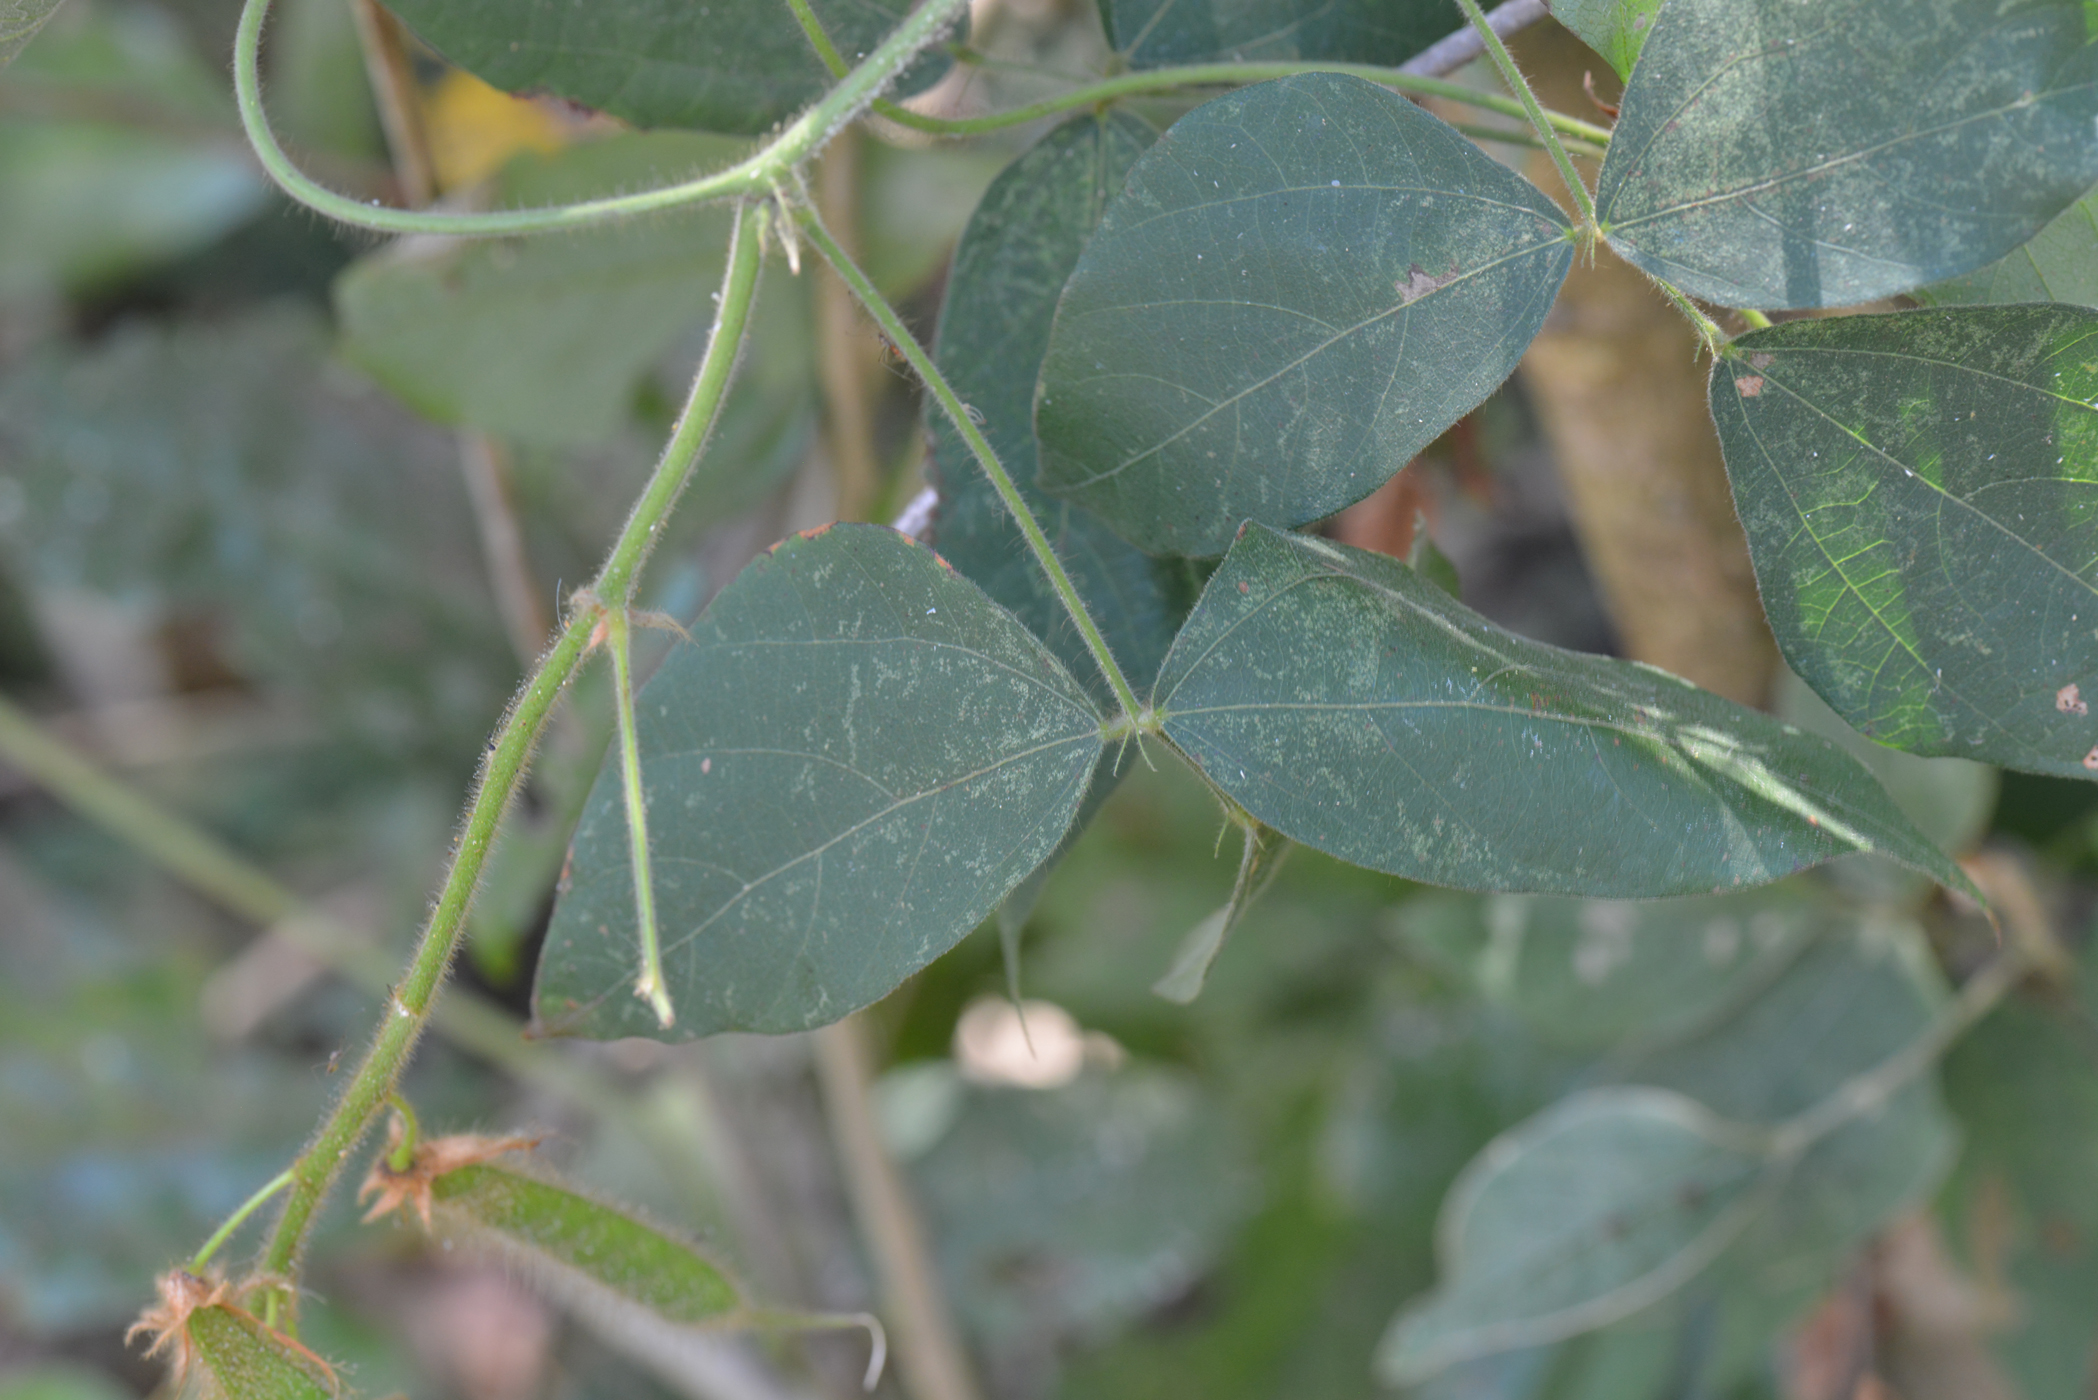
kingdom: Plantae
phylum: Tracheophyta
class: Magnoliopsida
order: Fabales
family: Fabaceae
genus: Cajanus
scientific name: Cajanus goensis
